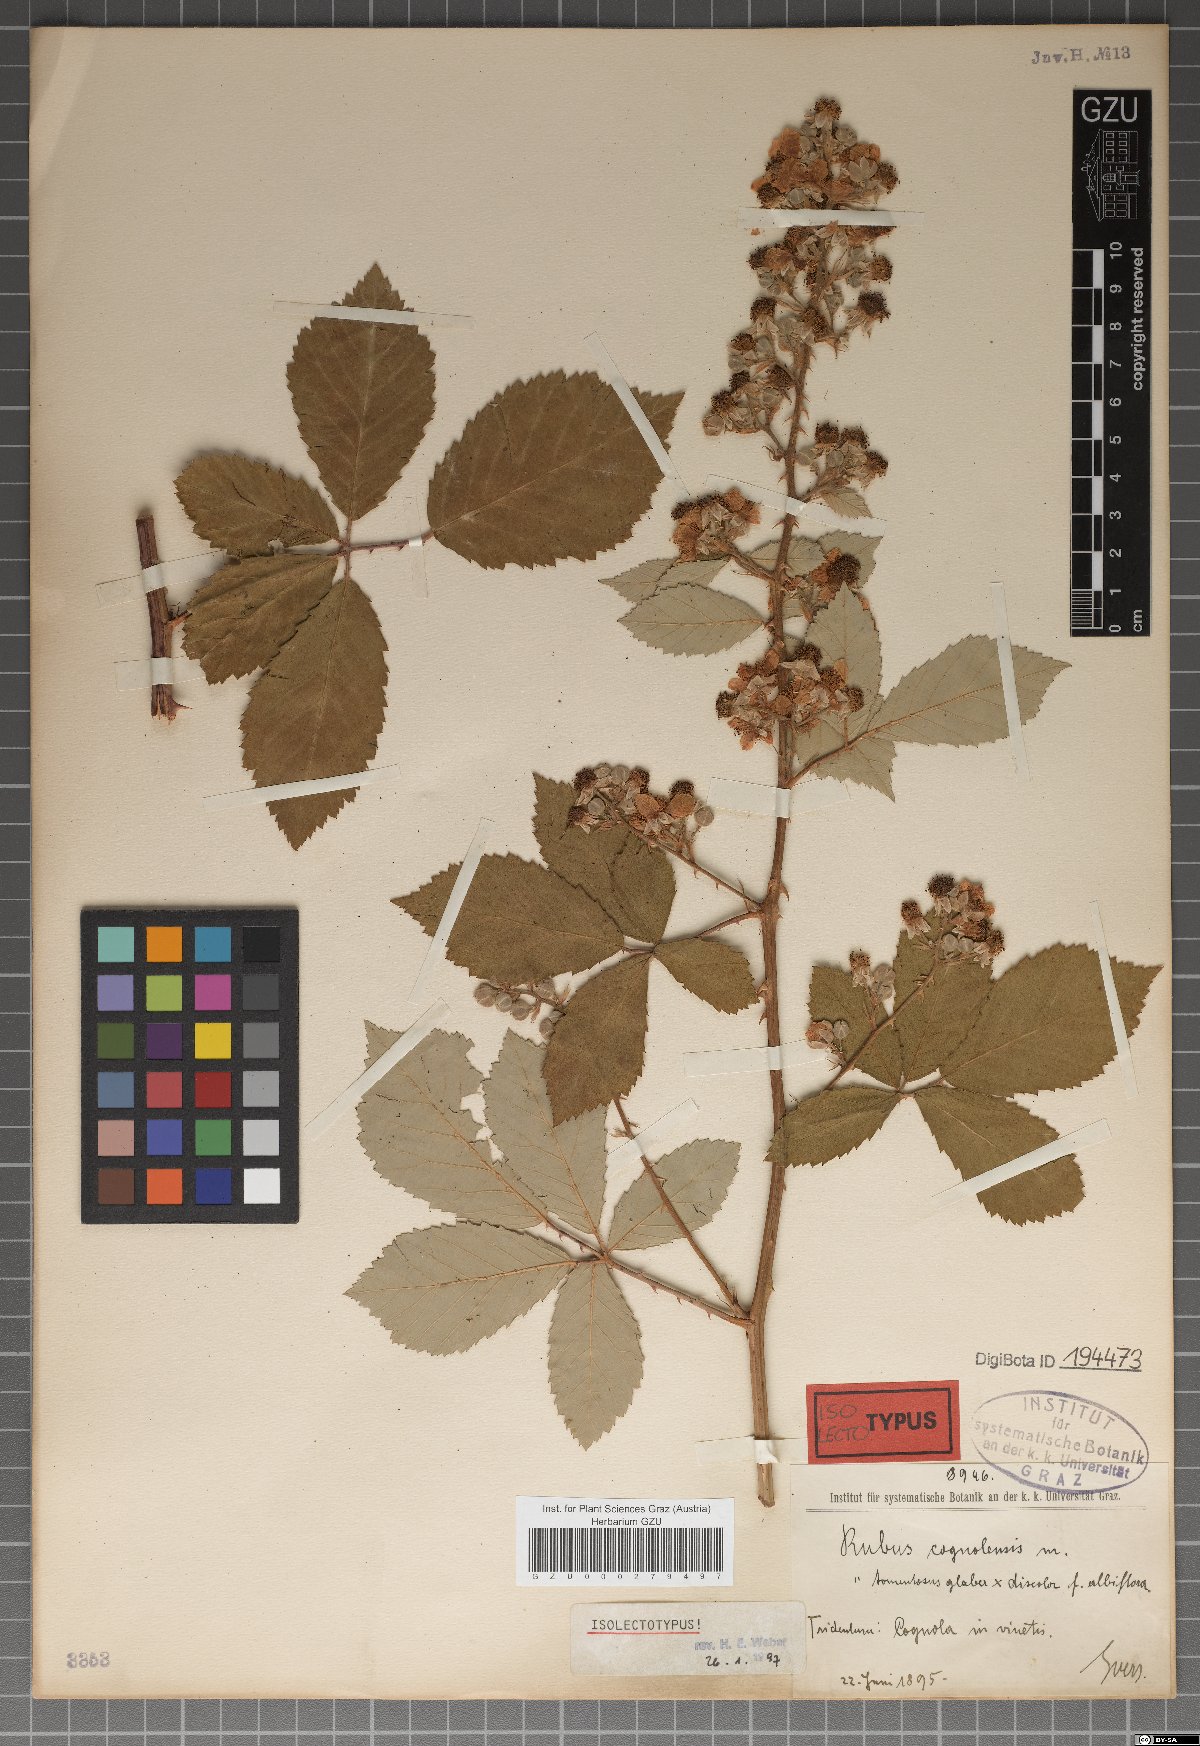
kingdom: Plantae
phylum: Tracheophyta
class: Magnoliopsida
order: Rosales
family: Rosaceae
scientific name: Rosaceae
